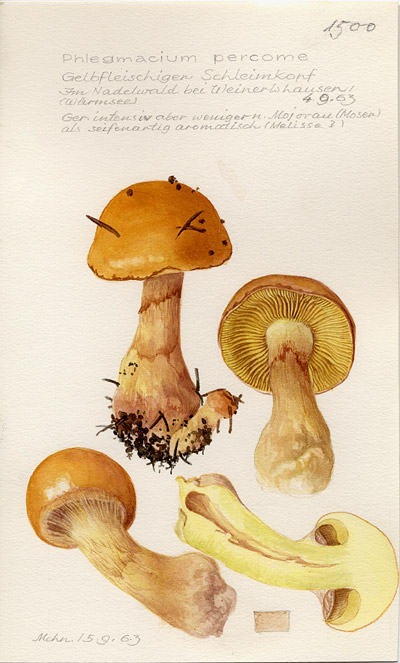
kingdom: Fungi
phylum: Basidiomycota
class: Agaricomycetes
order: Agaricales
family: Cortinariaceae
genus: Phlegmacium
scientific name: Phlegmacium percome
